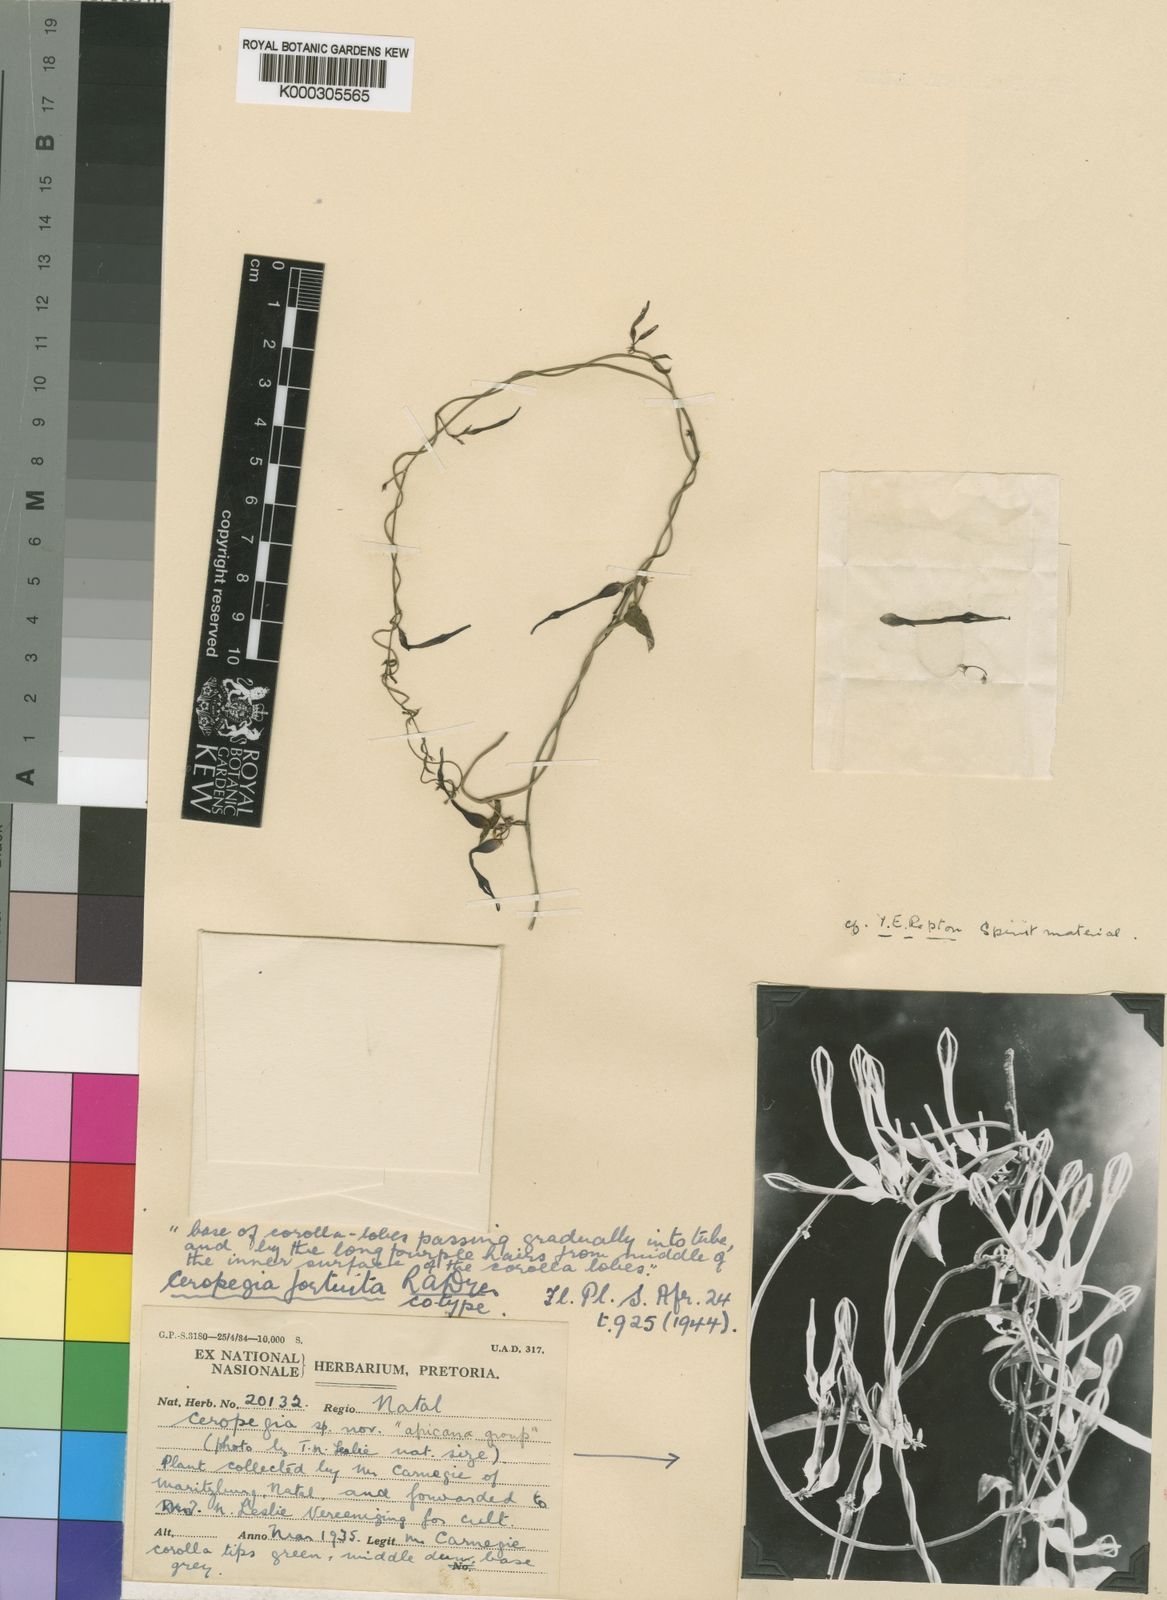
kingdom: Plantae
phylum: Tracheophyta
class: Magnoliopsida
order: Gentianales
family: Apocynaceae
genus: Ceropegia
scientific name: Ceropegia africana
